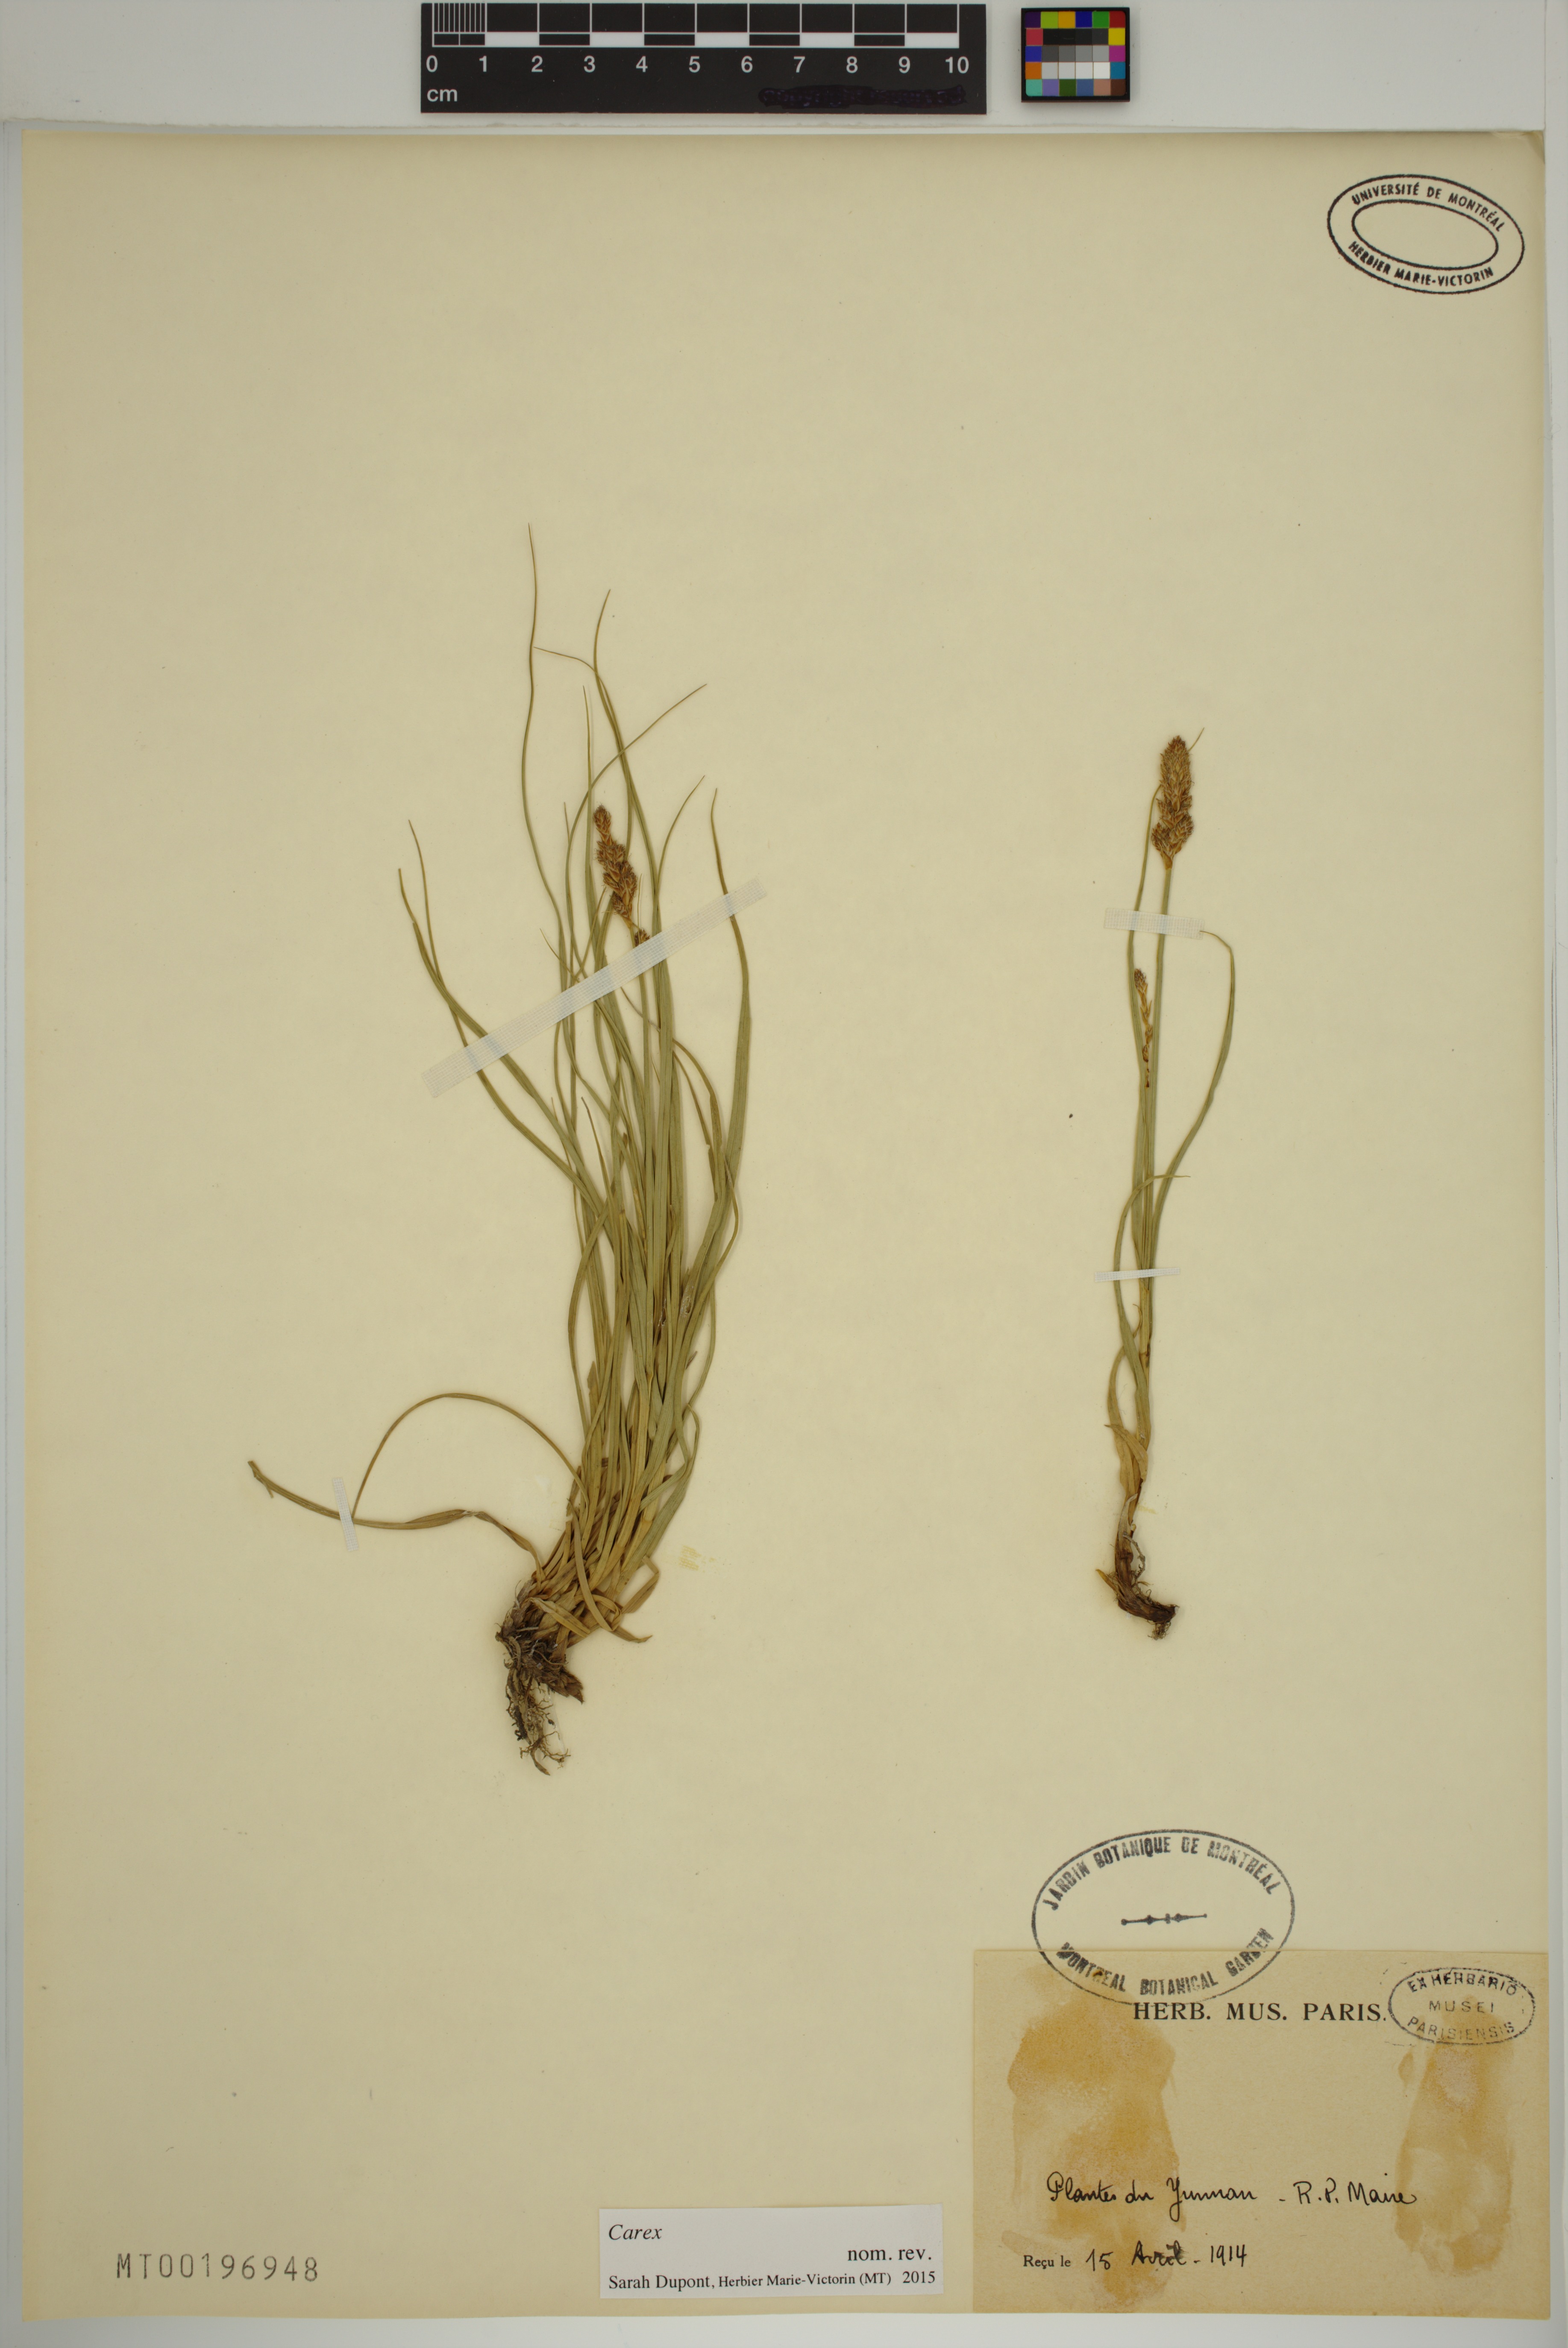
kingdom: Plantae
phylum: Tracheophyta
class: Liliopsida
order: Poales
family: Cyperaceae
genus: Carex
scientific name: Carex
